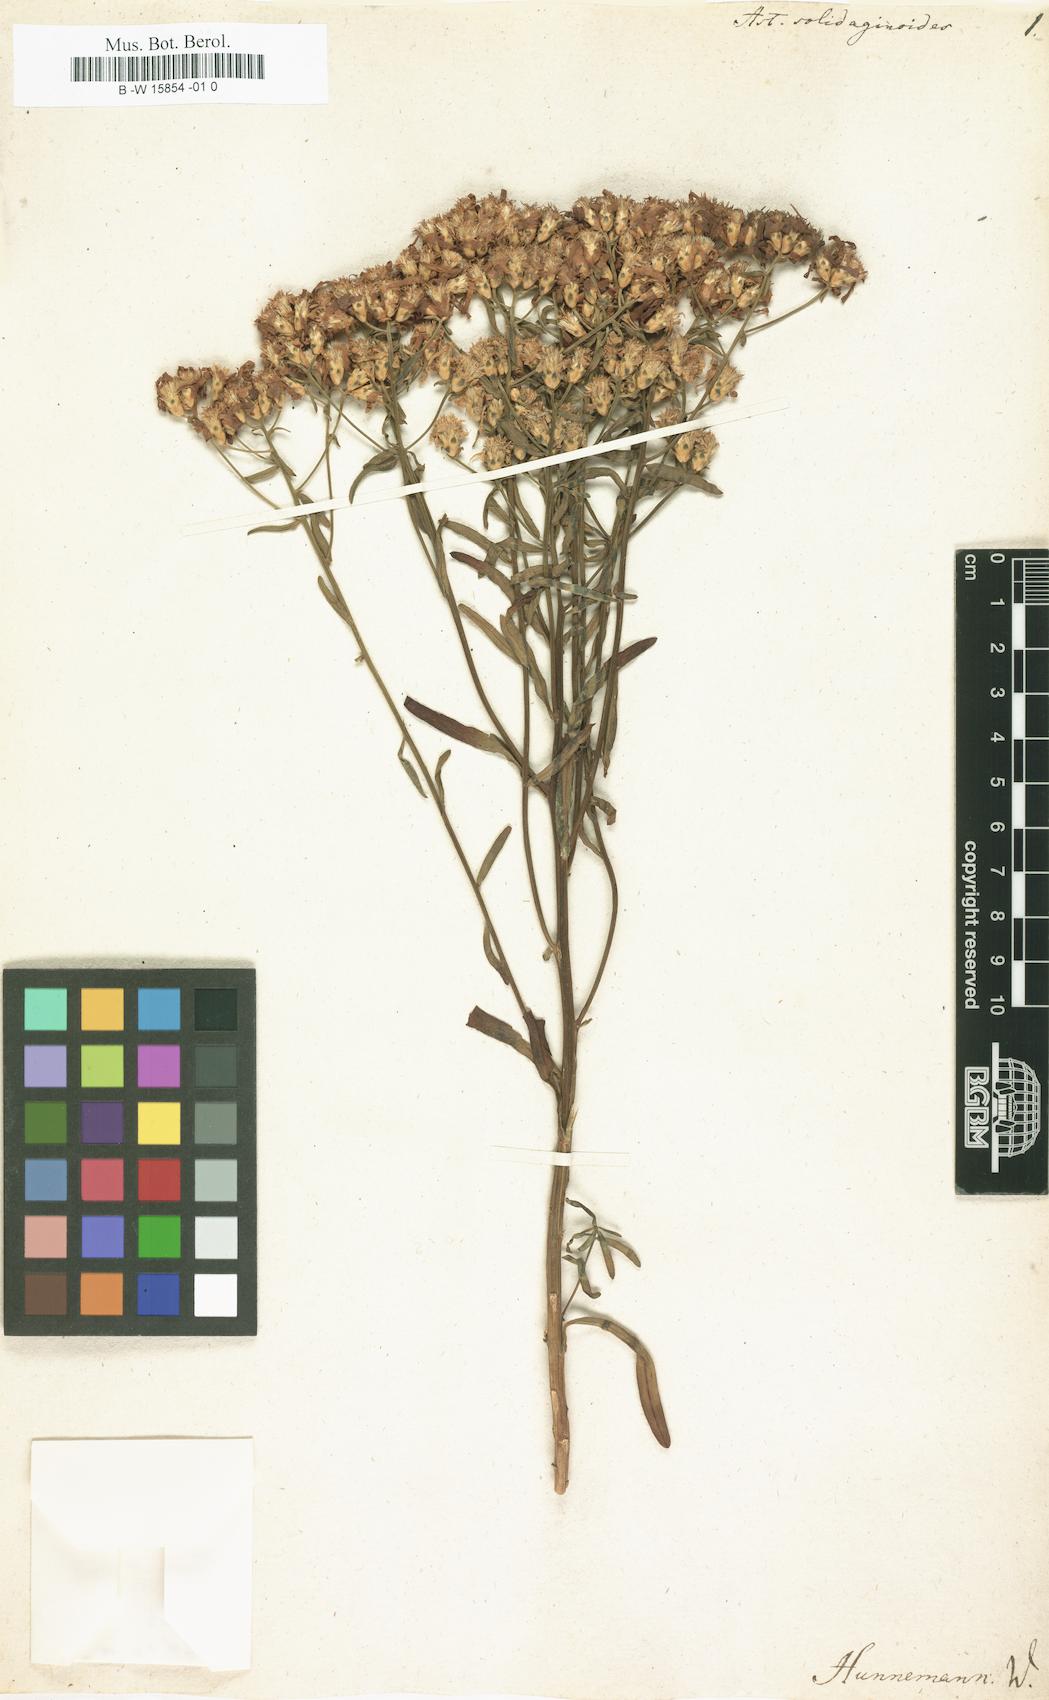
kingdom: Plantae
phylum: Tracheophyta
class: Magnoliopsida
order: Asterales
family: Asteraceae
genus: Sericocarpus
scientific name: Sericocarpus linifolius
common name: Narrow-leaf aster
